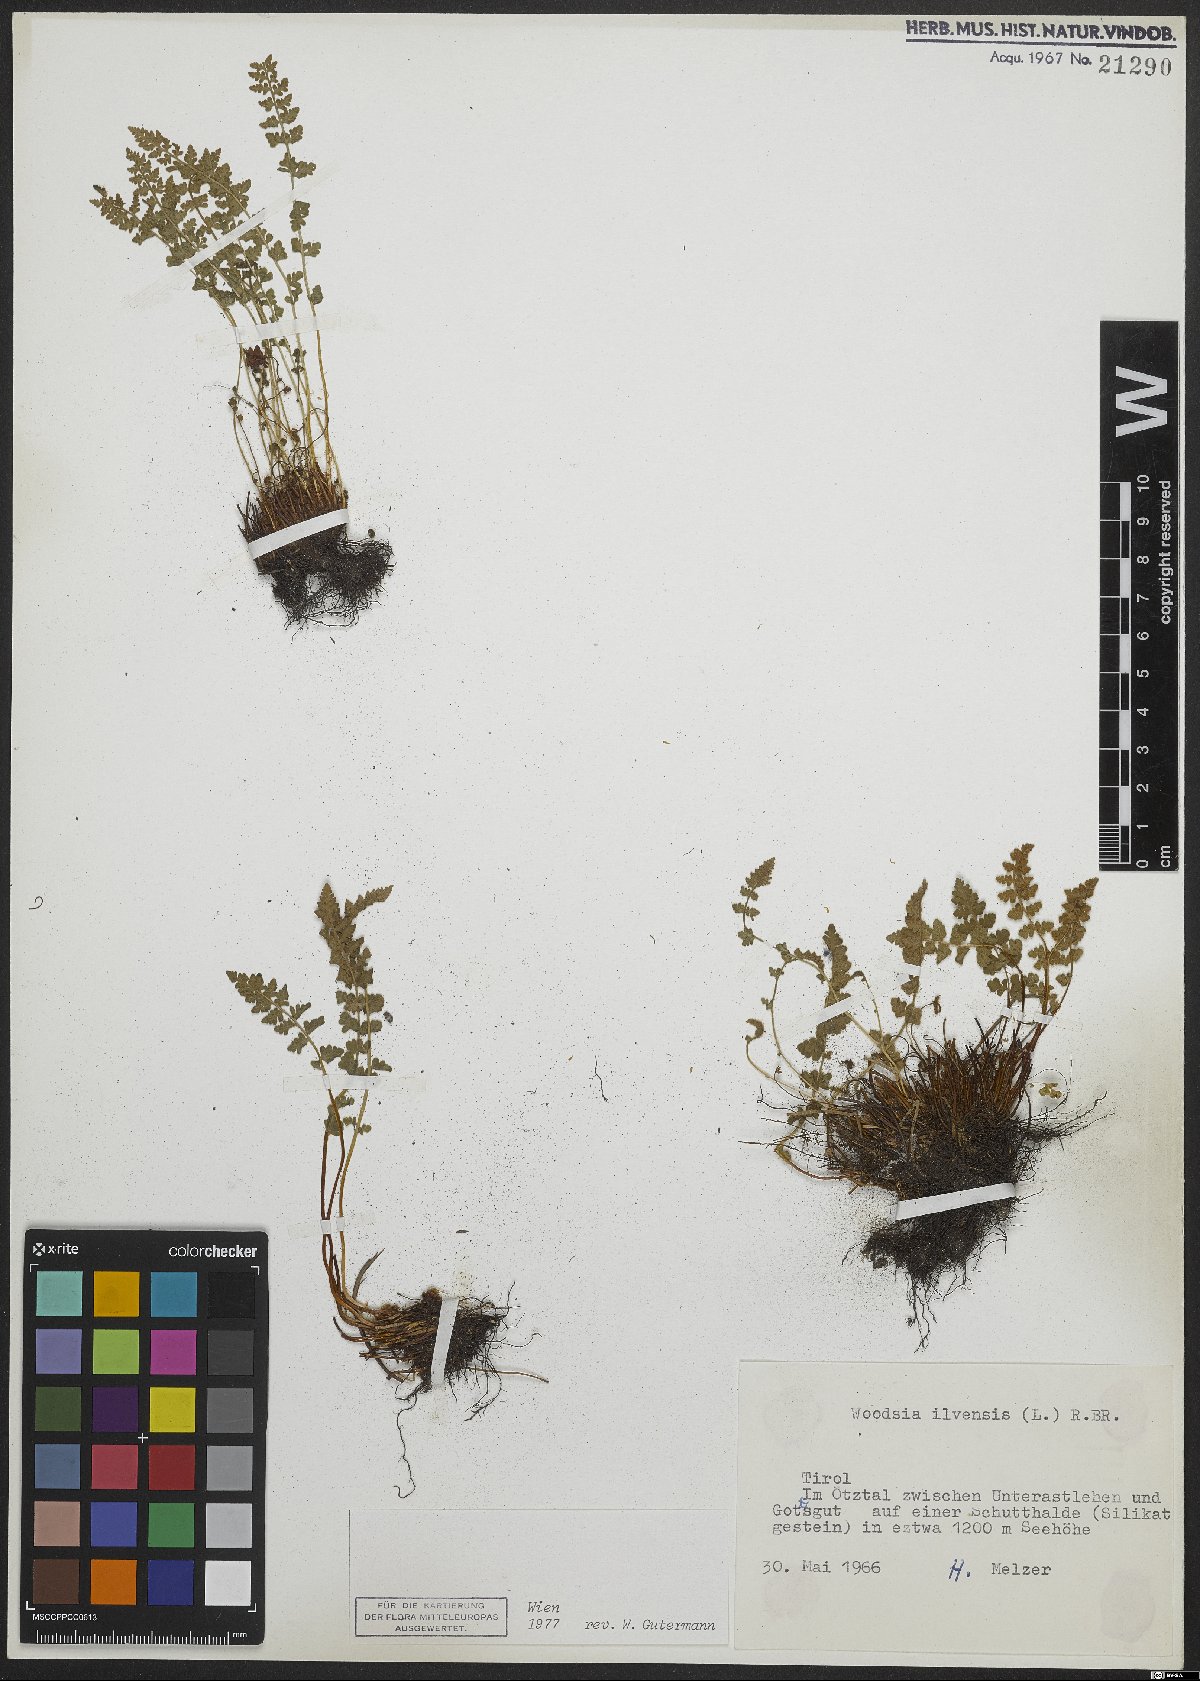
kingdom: Plantae
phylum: Tracheophyta
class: Polypodiopsida
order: Polypodiales
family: Woodsiaceae
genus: Woodsia
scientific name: Woodsia ilvensis
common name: Fragrant woodsia
